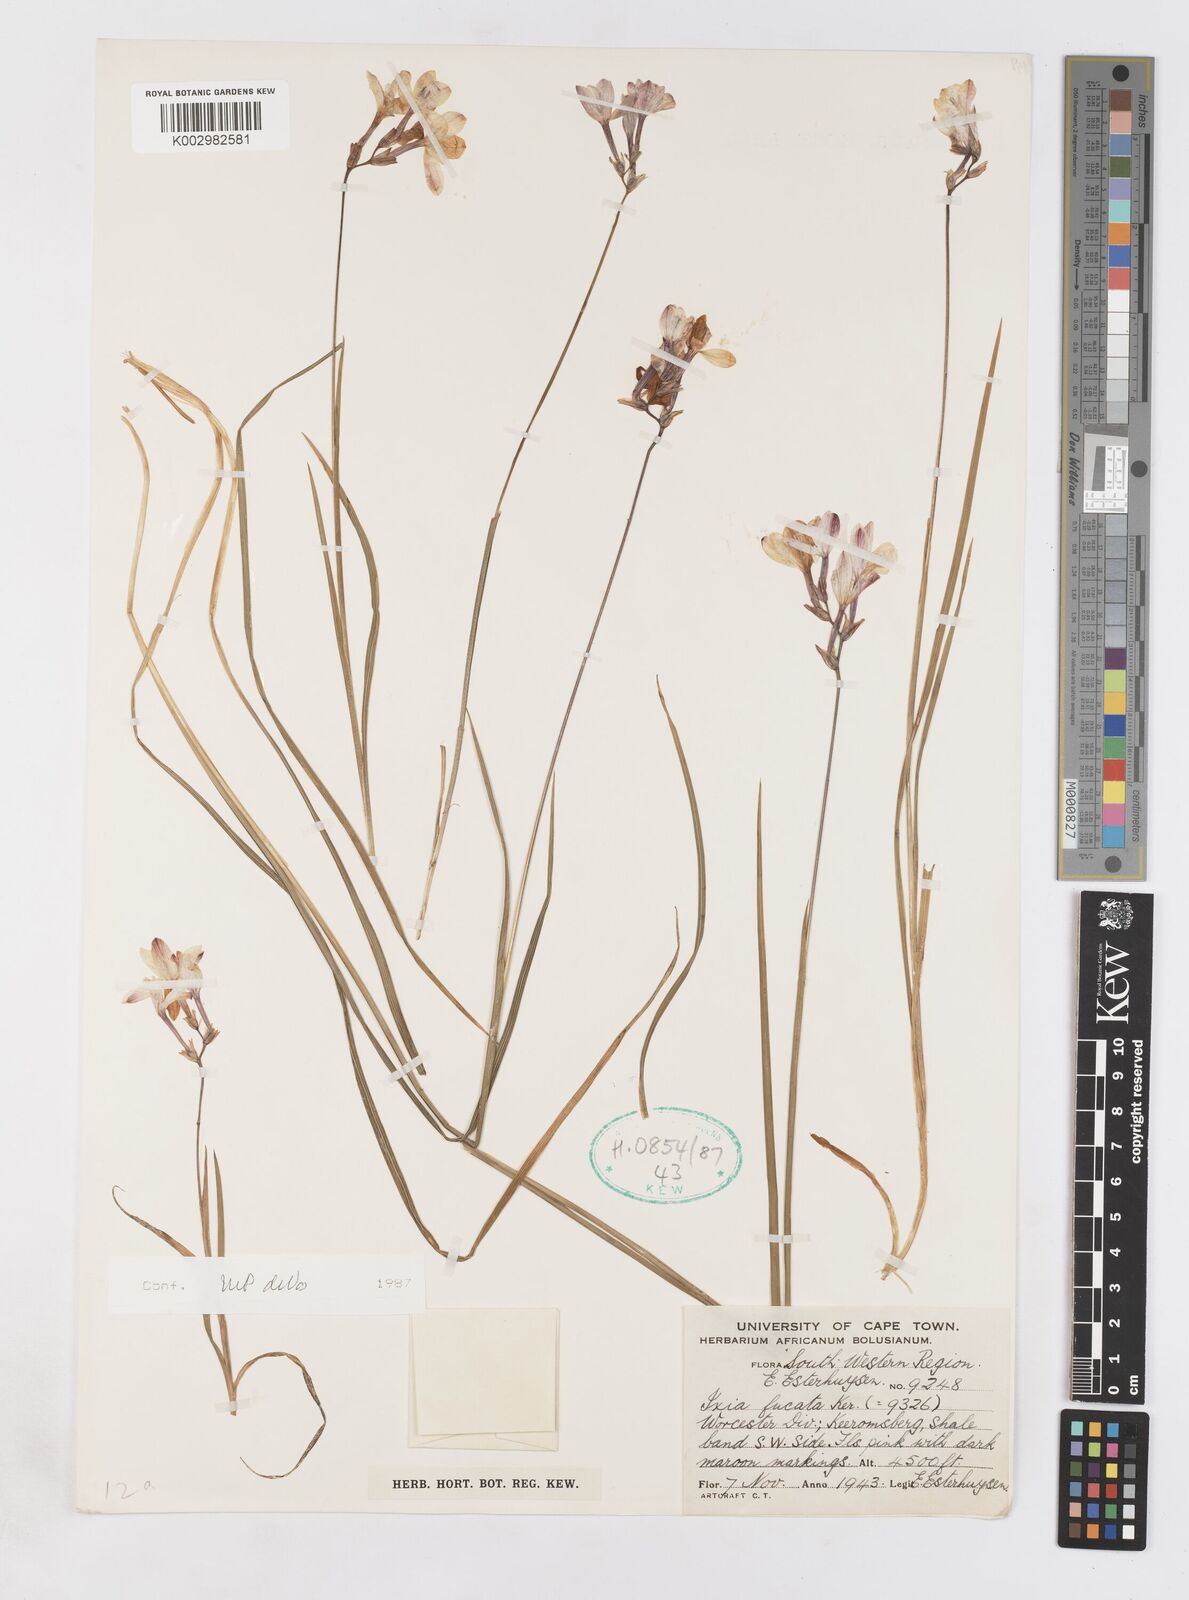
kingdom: Plantae
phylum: Tracheophyta
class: Liliopsida
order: Asparagales
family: Iridaceae
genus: Ixia
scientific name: Ixia fucata
